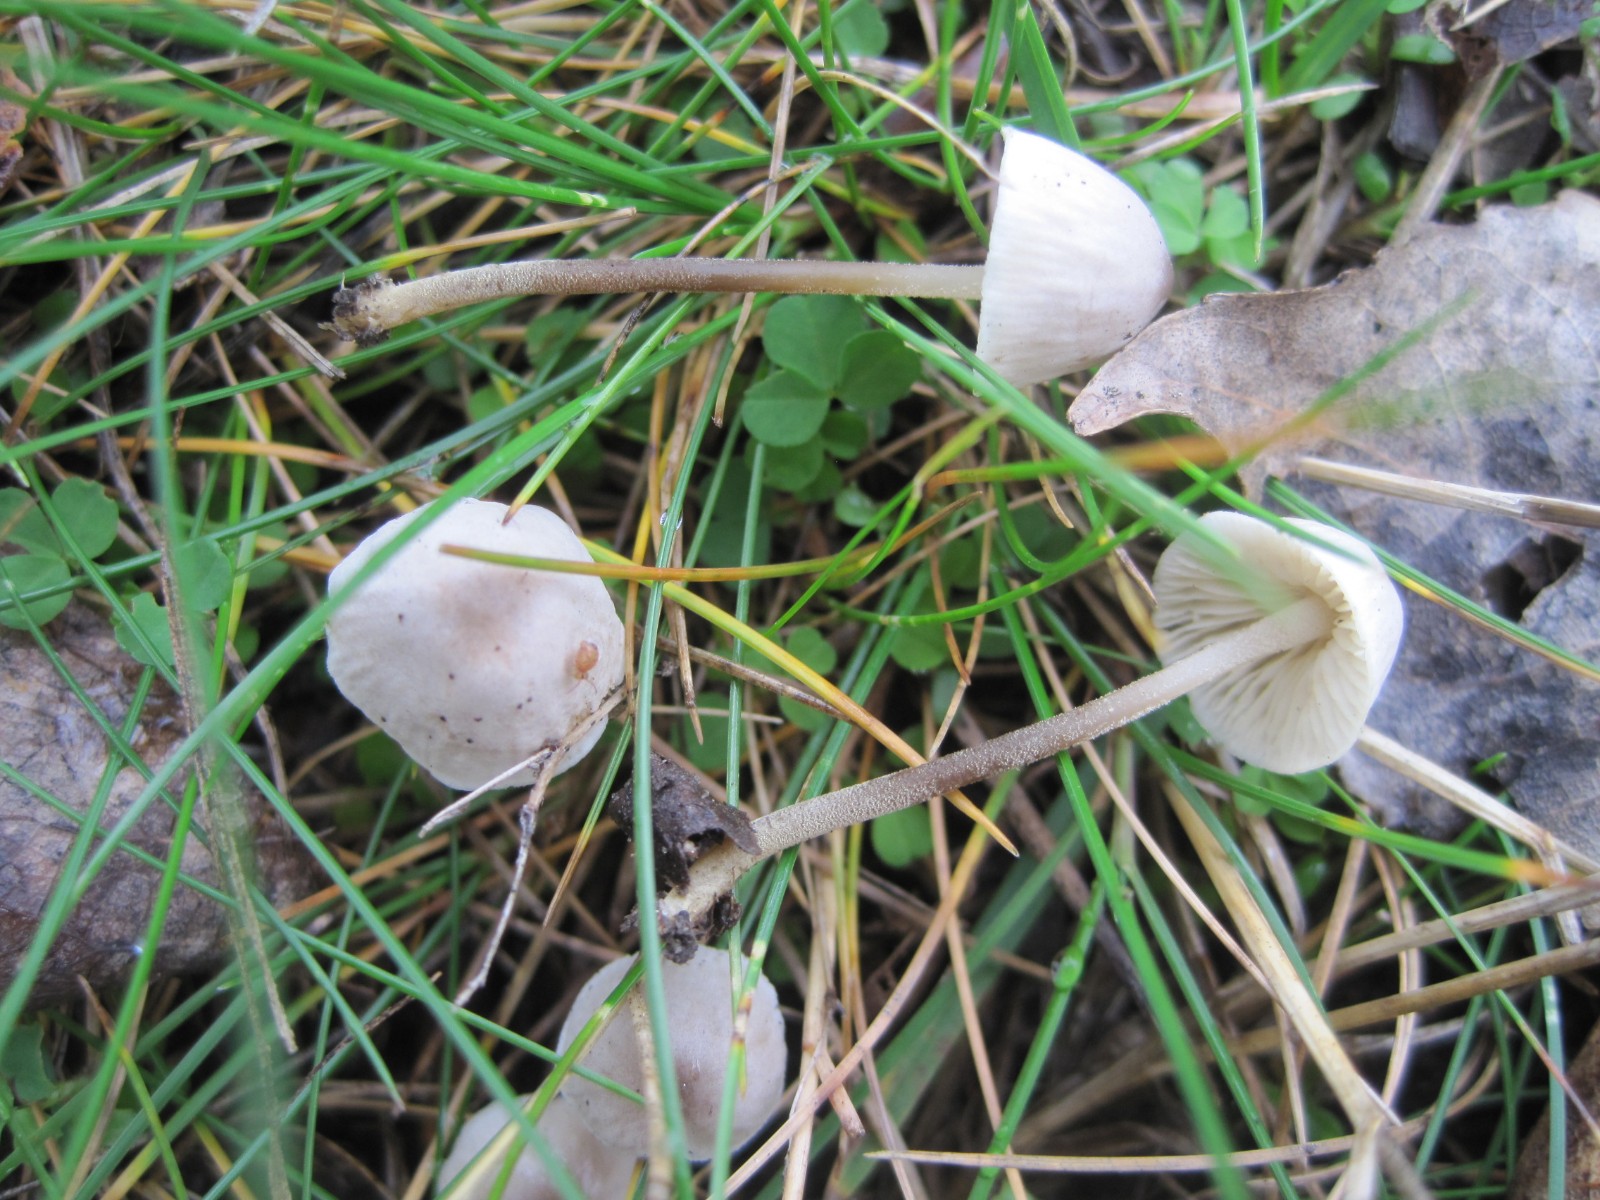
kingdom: Fungi
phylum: Basidiomycota
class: Agaricomycetes
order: Agaricales
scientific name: Agaricales
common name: champignonordenen
